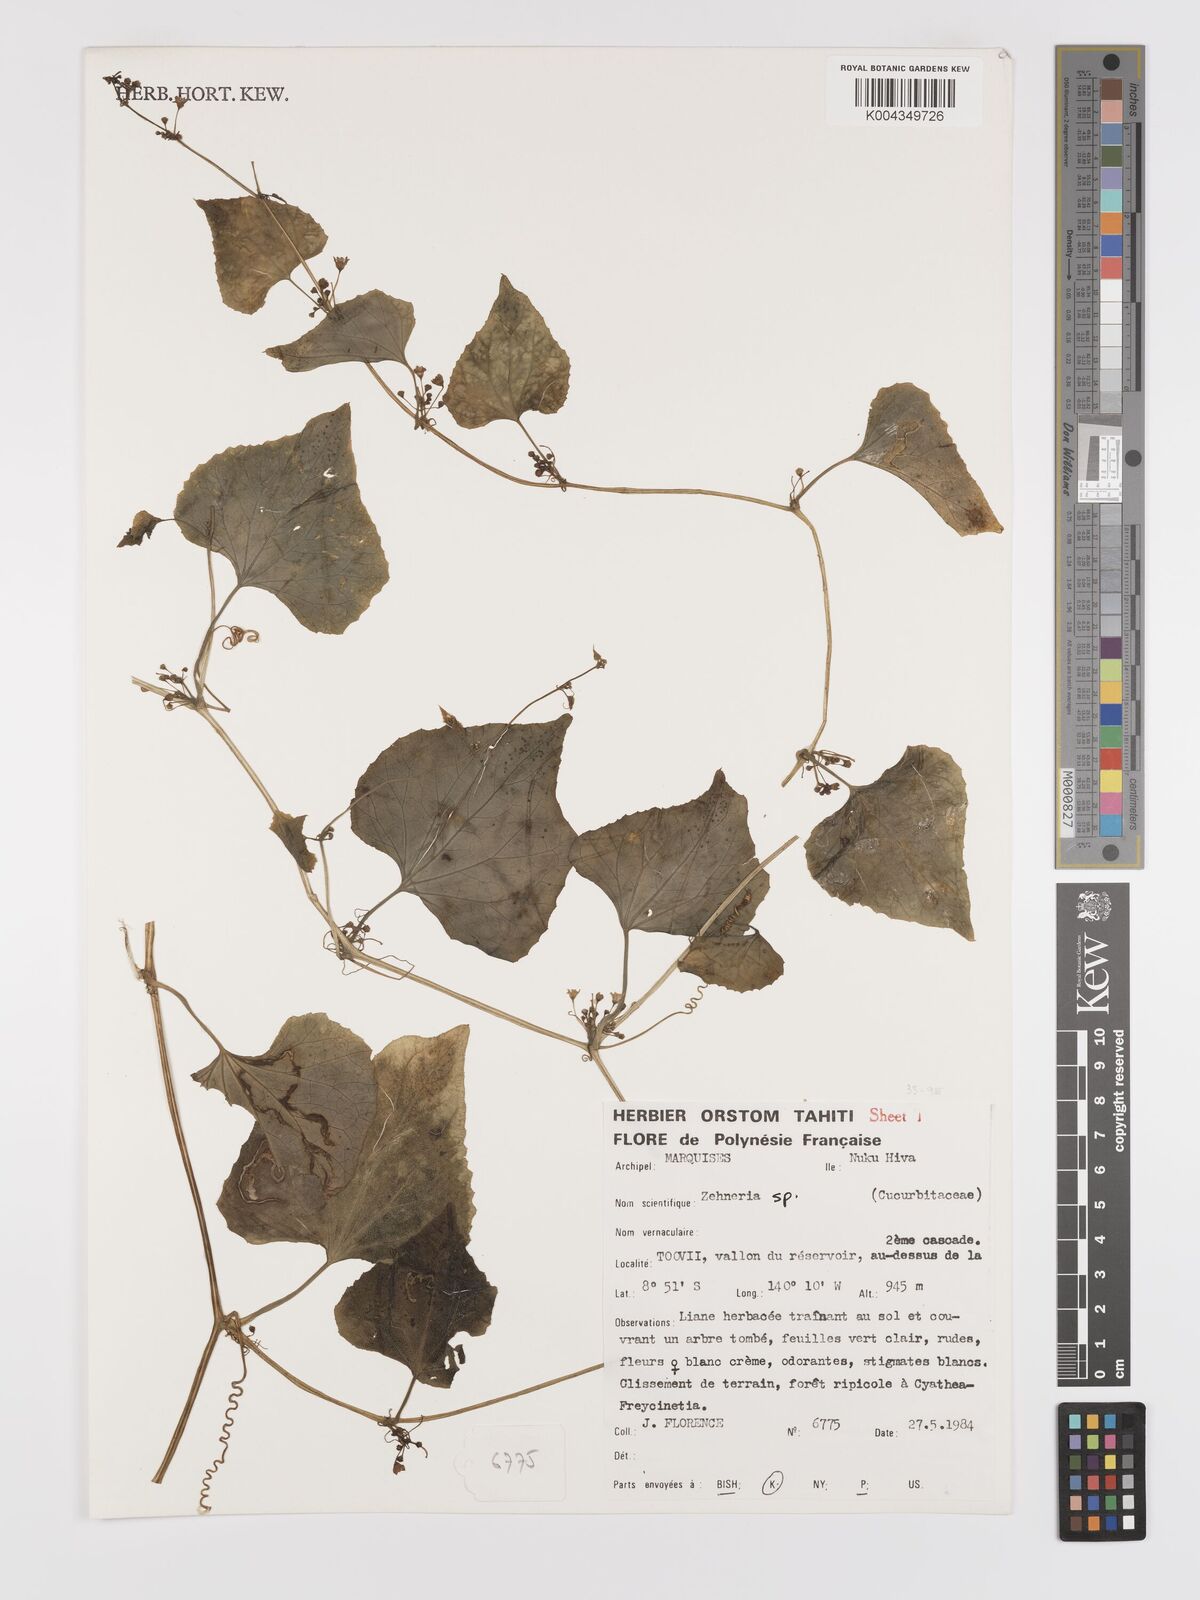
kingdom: Plantae
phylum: Tracheophyta
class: Magnoliopsida
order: Cucurbitales
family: Cucurbitaceae
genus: Zehneria
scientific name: Zehneria
